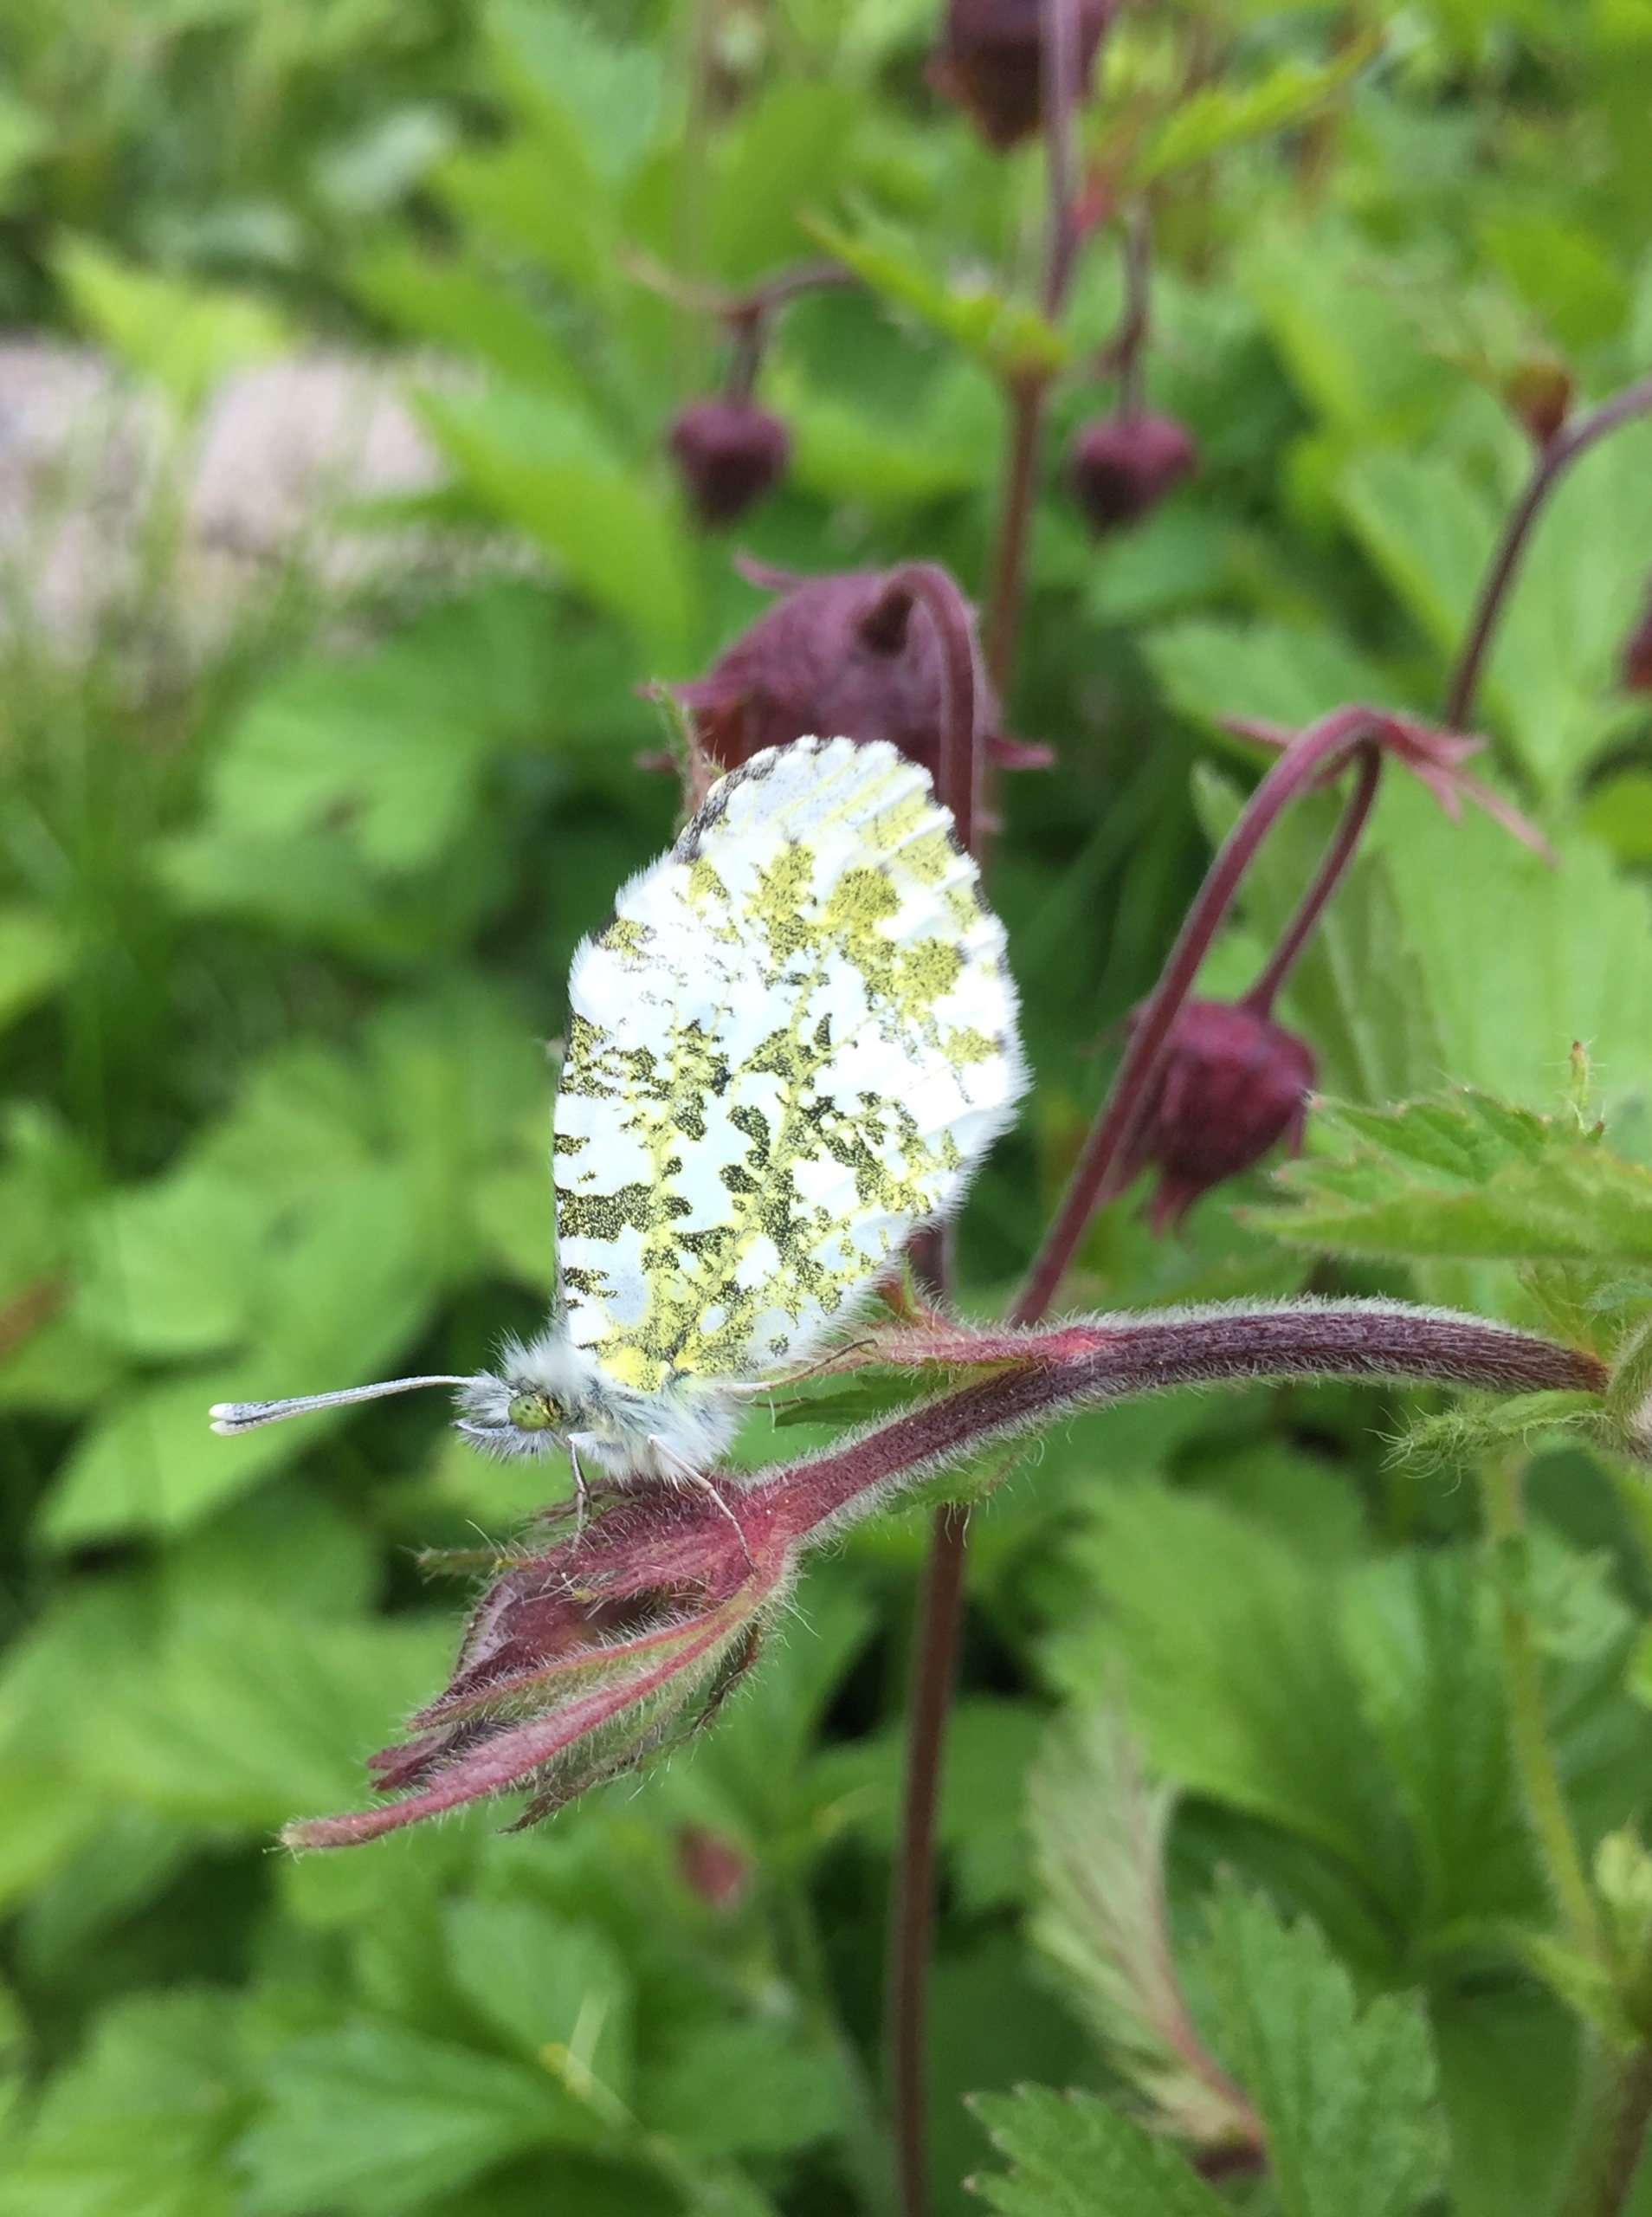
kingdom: Animalia
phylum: Arthropoda
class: Insecta
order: Lepidoptera
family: Pieridae
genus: Anthocharis
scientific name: Anthocharis cardamines
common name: Aurora
